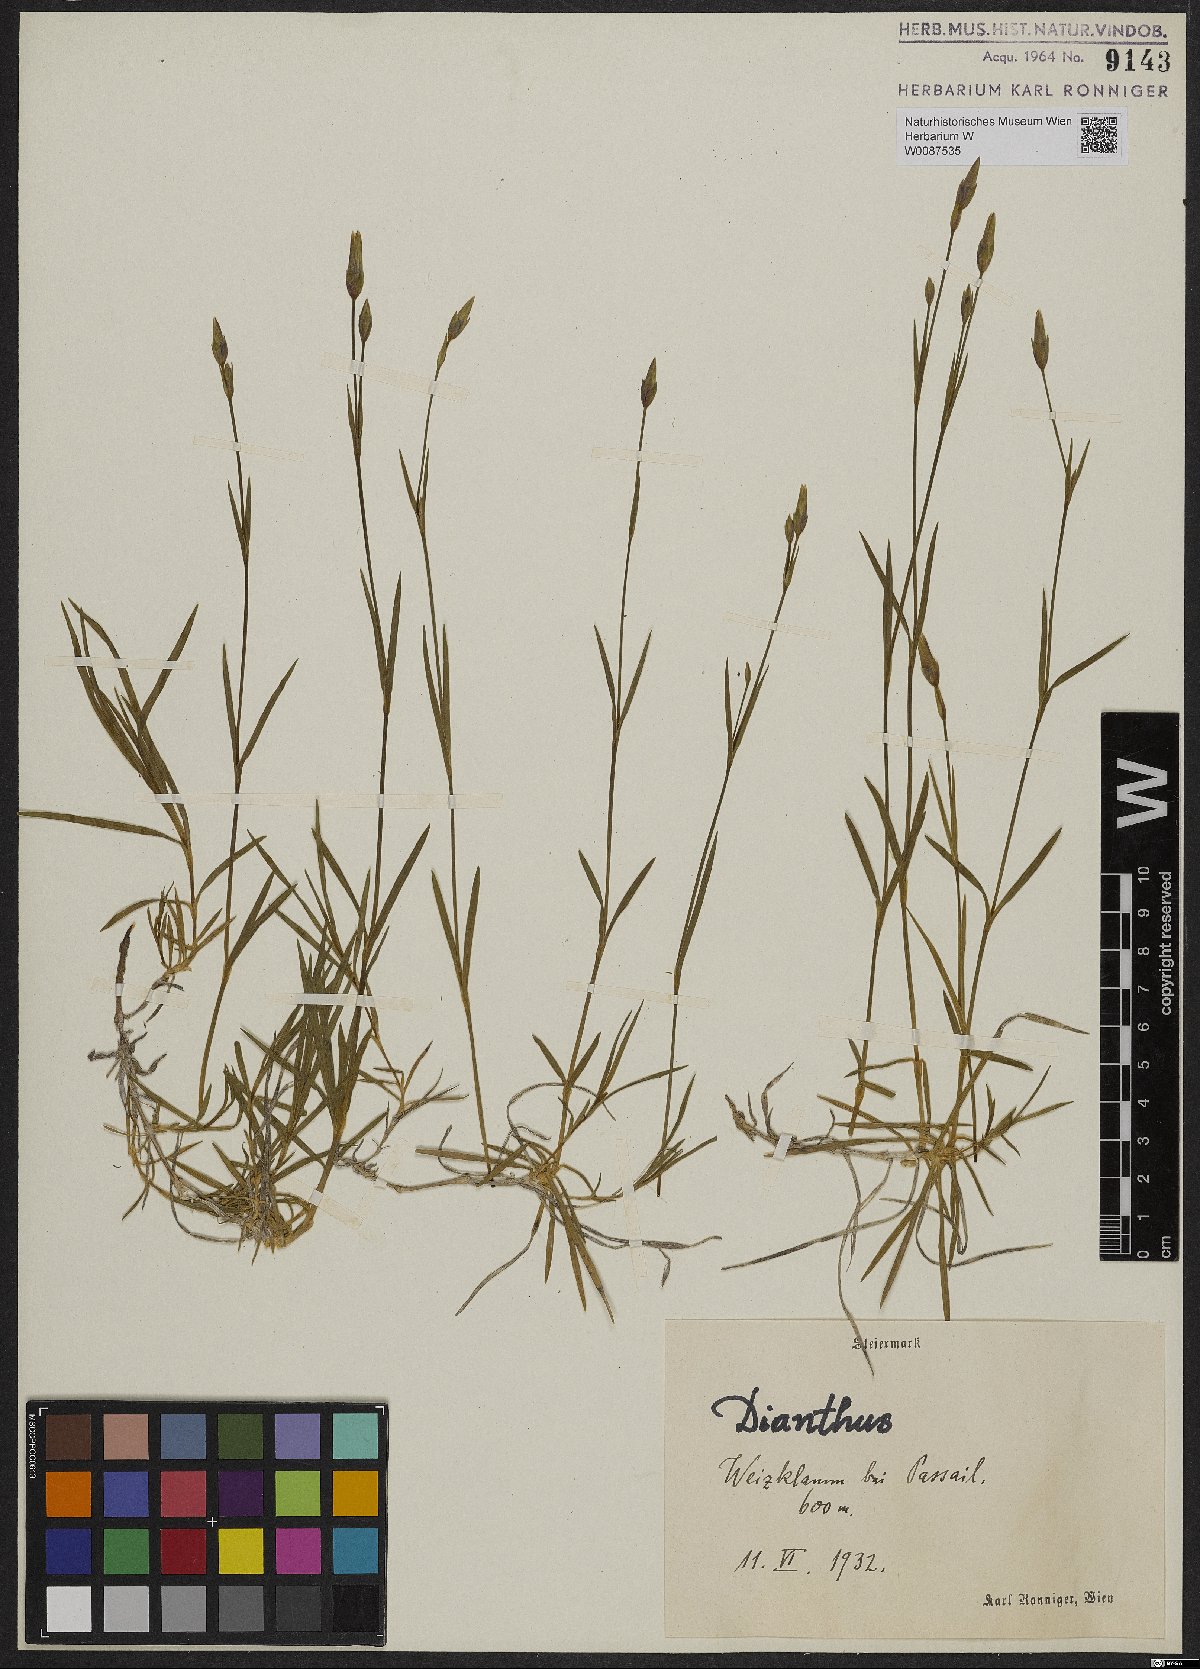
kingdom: Plantae
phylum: Tracheophyta
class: Magnoliopsida
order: Caryophyllales
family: Caryophyllaceae
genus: Dianthus
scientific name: Dianthus plumarius
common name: Pink
